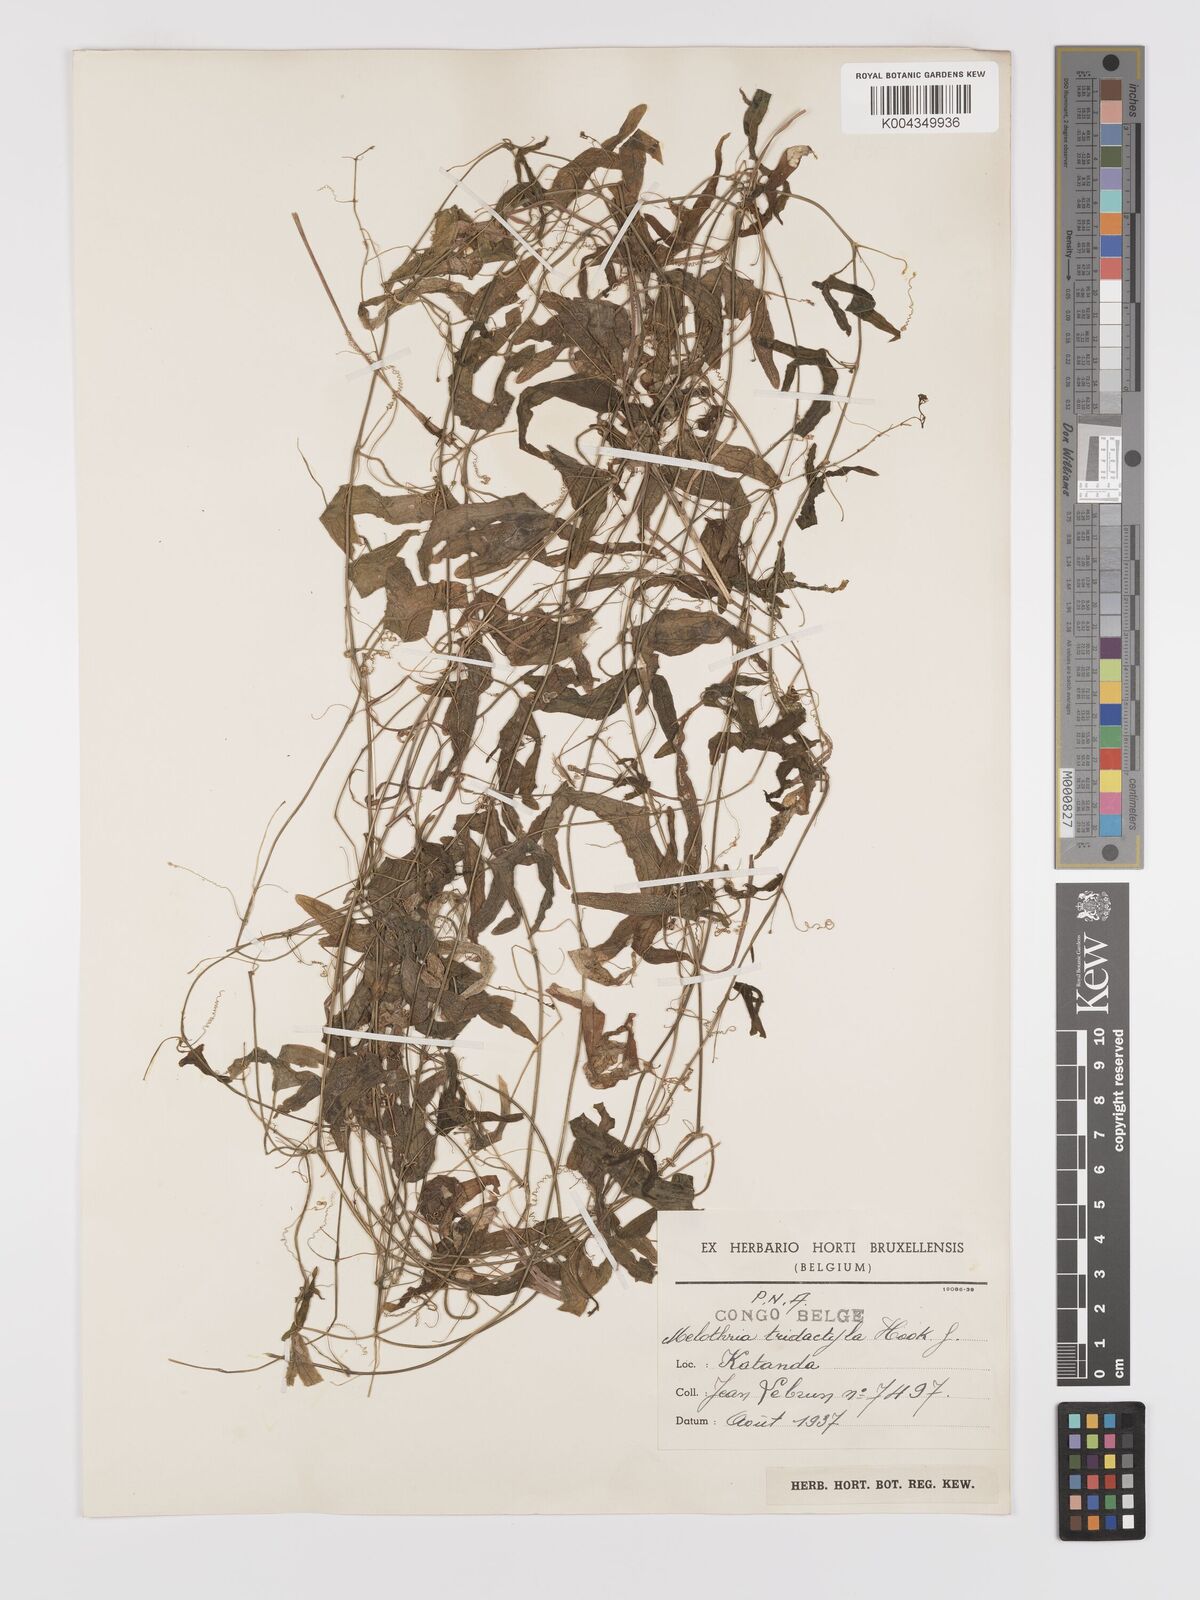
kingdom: Plantae
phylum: Tracheophyta
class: Magnoliopsida
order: Cucurbitales
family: Cucurbitaceae
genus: Zehneria
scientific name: Zehneria thwaitesii
